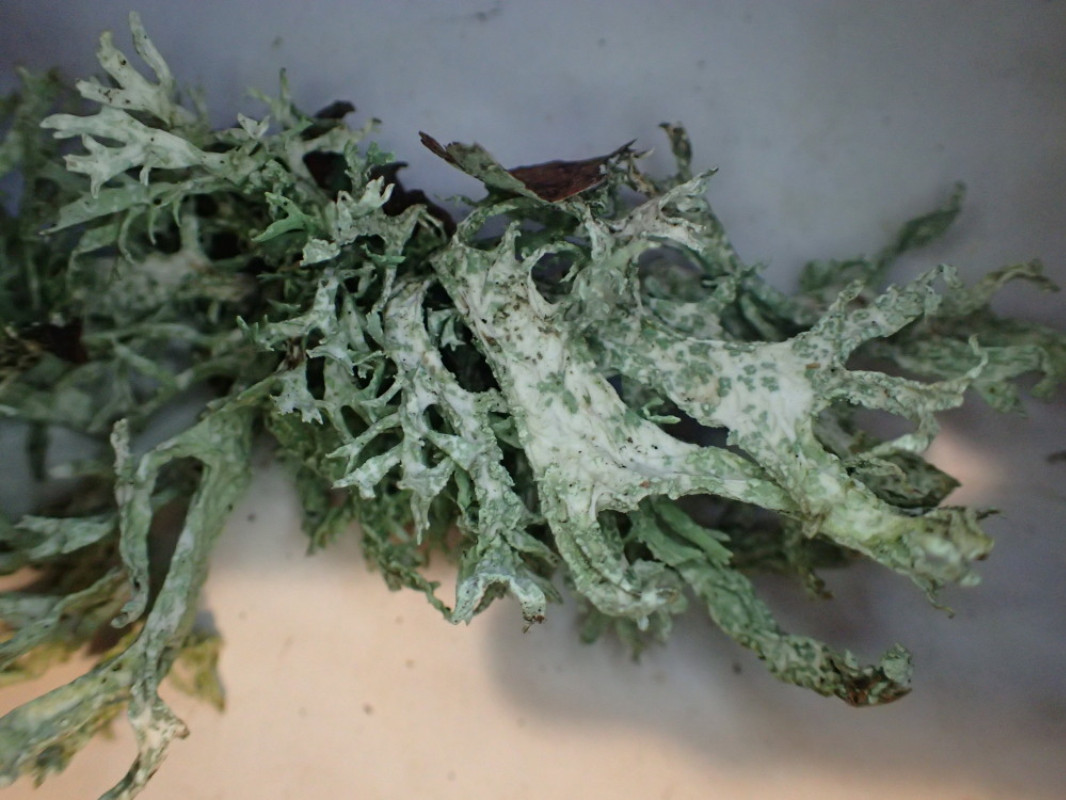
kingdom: Fungi
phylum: Ascomycota
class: Lecanoromycetes
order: Lecanorales
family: Parmeliaceae
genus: Evernia
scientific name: Evernia prunastri
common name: almindelig slåenlav
